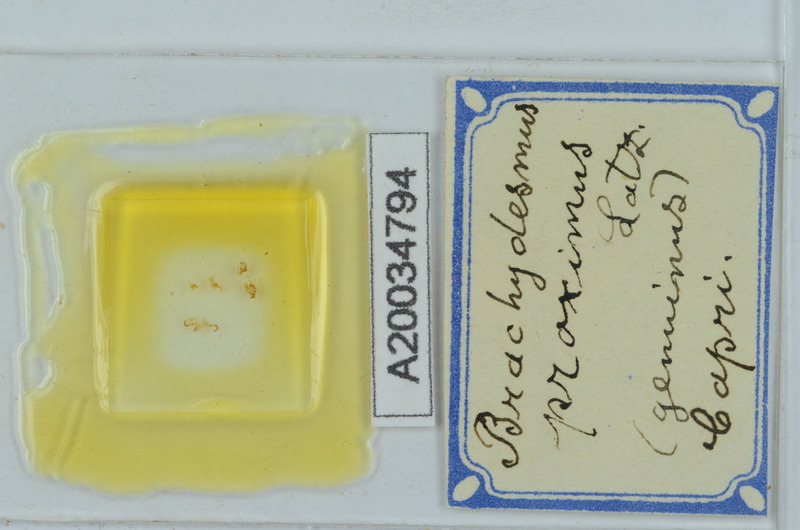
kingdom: Animalia
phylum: Arthropoda
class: Diplopoda
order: Polydesmida
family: Polydesmidae
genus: Brachydesmus
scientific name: Brachydesmus proximus
